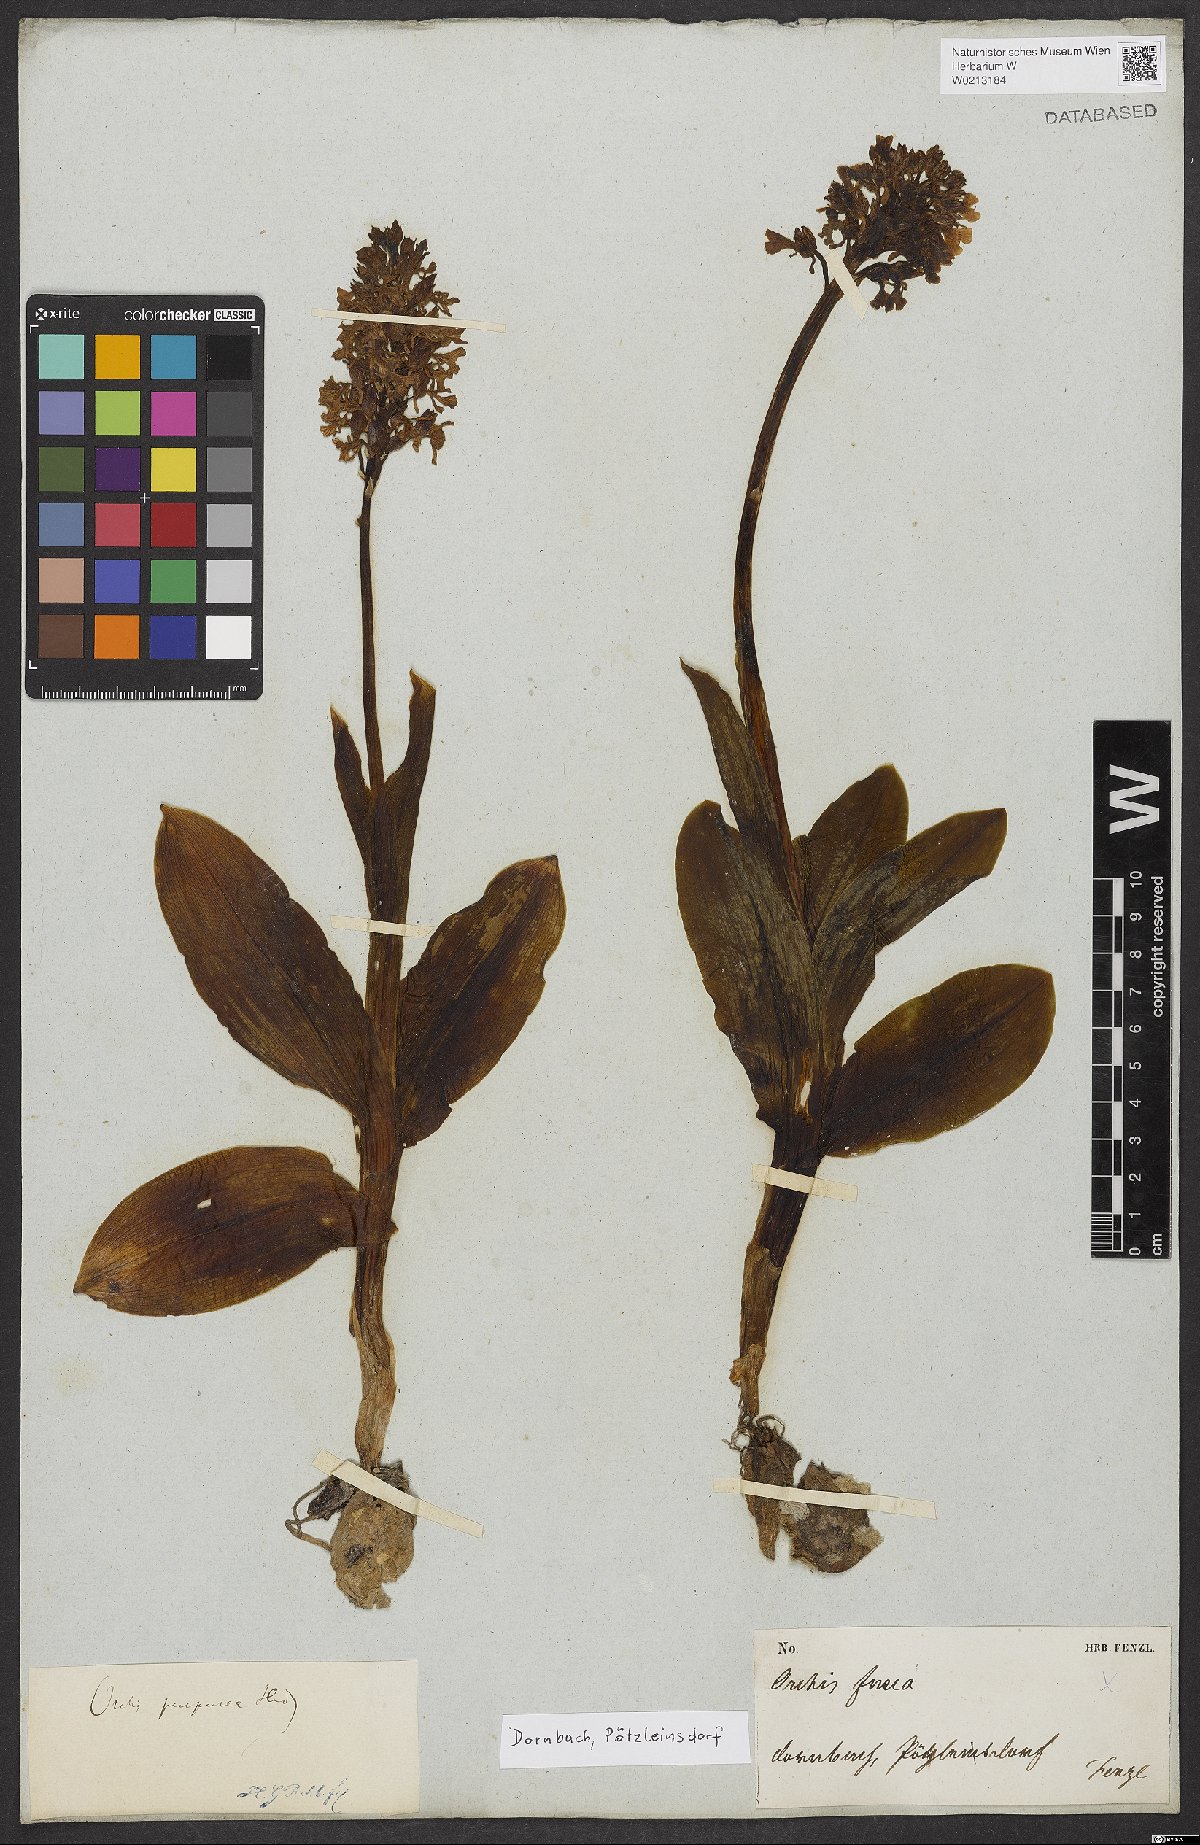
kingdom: Plantae
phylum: Tracheophyta
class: Liliopsida
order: Asparagales
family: Orchidaceae
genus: Orchis
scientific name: Orchis purpurea
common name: Lady orchid
